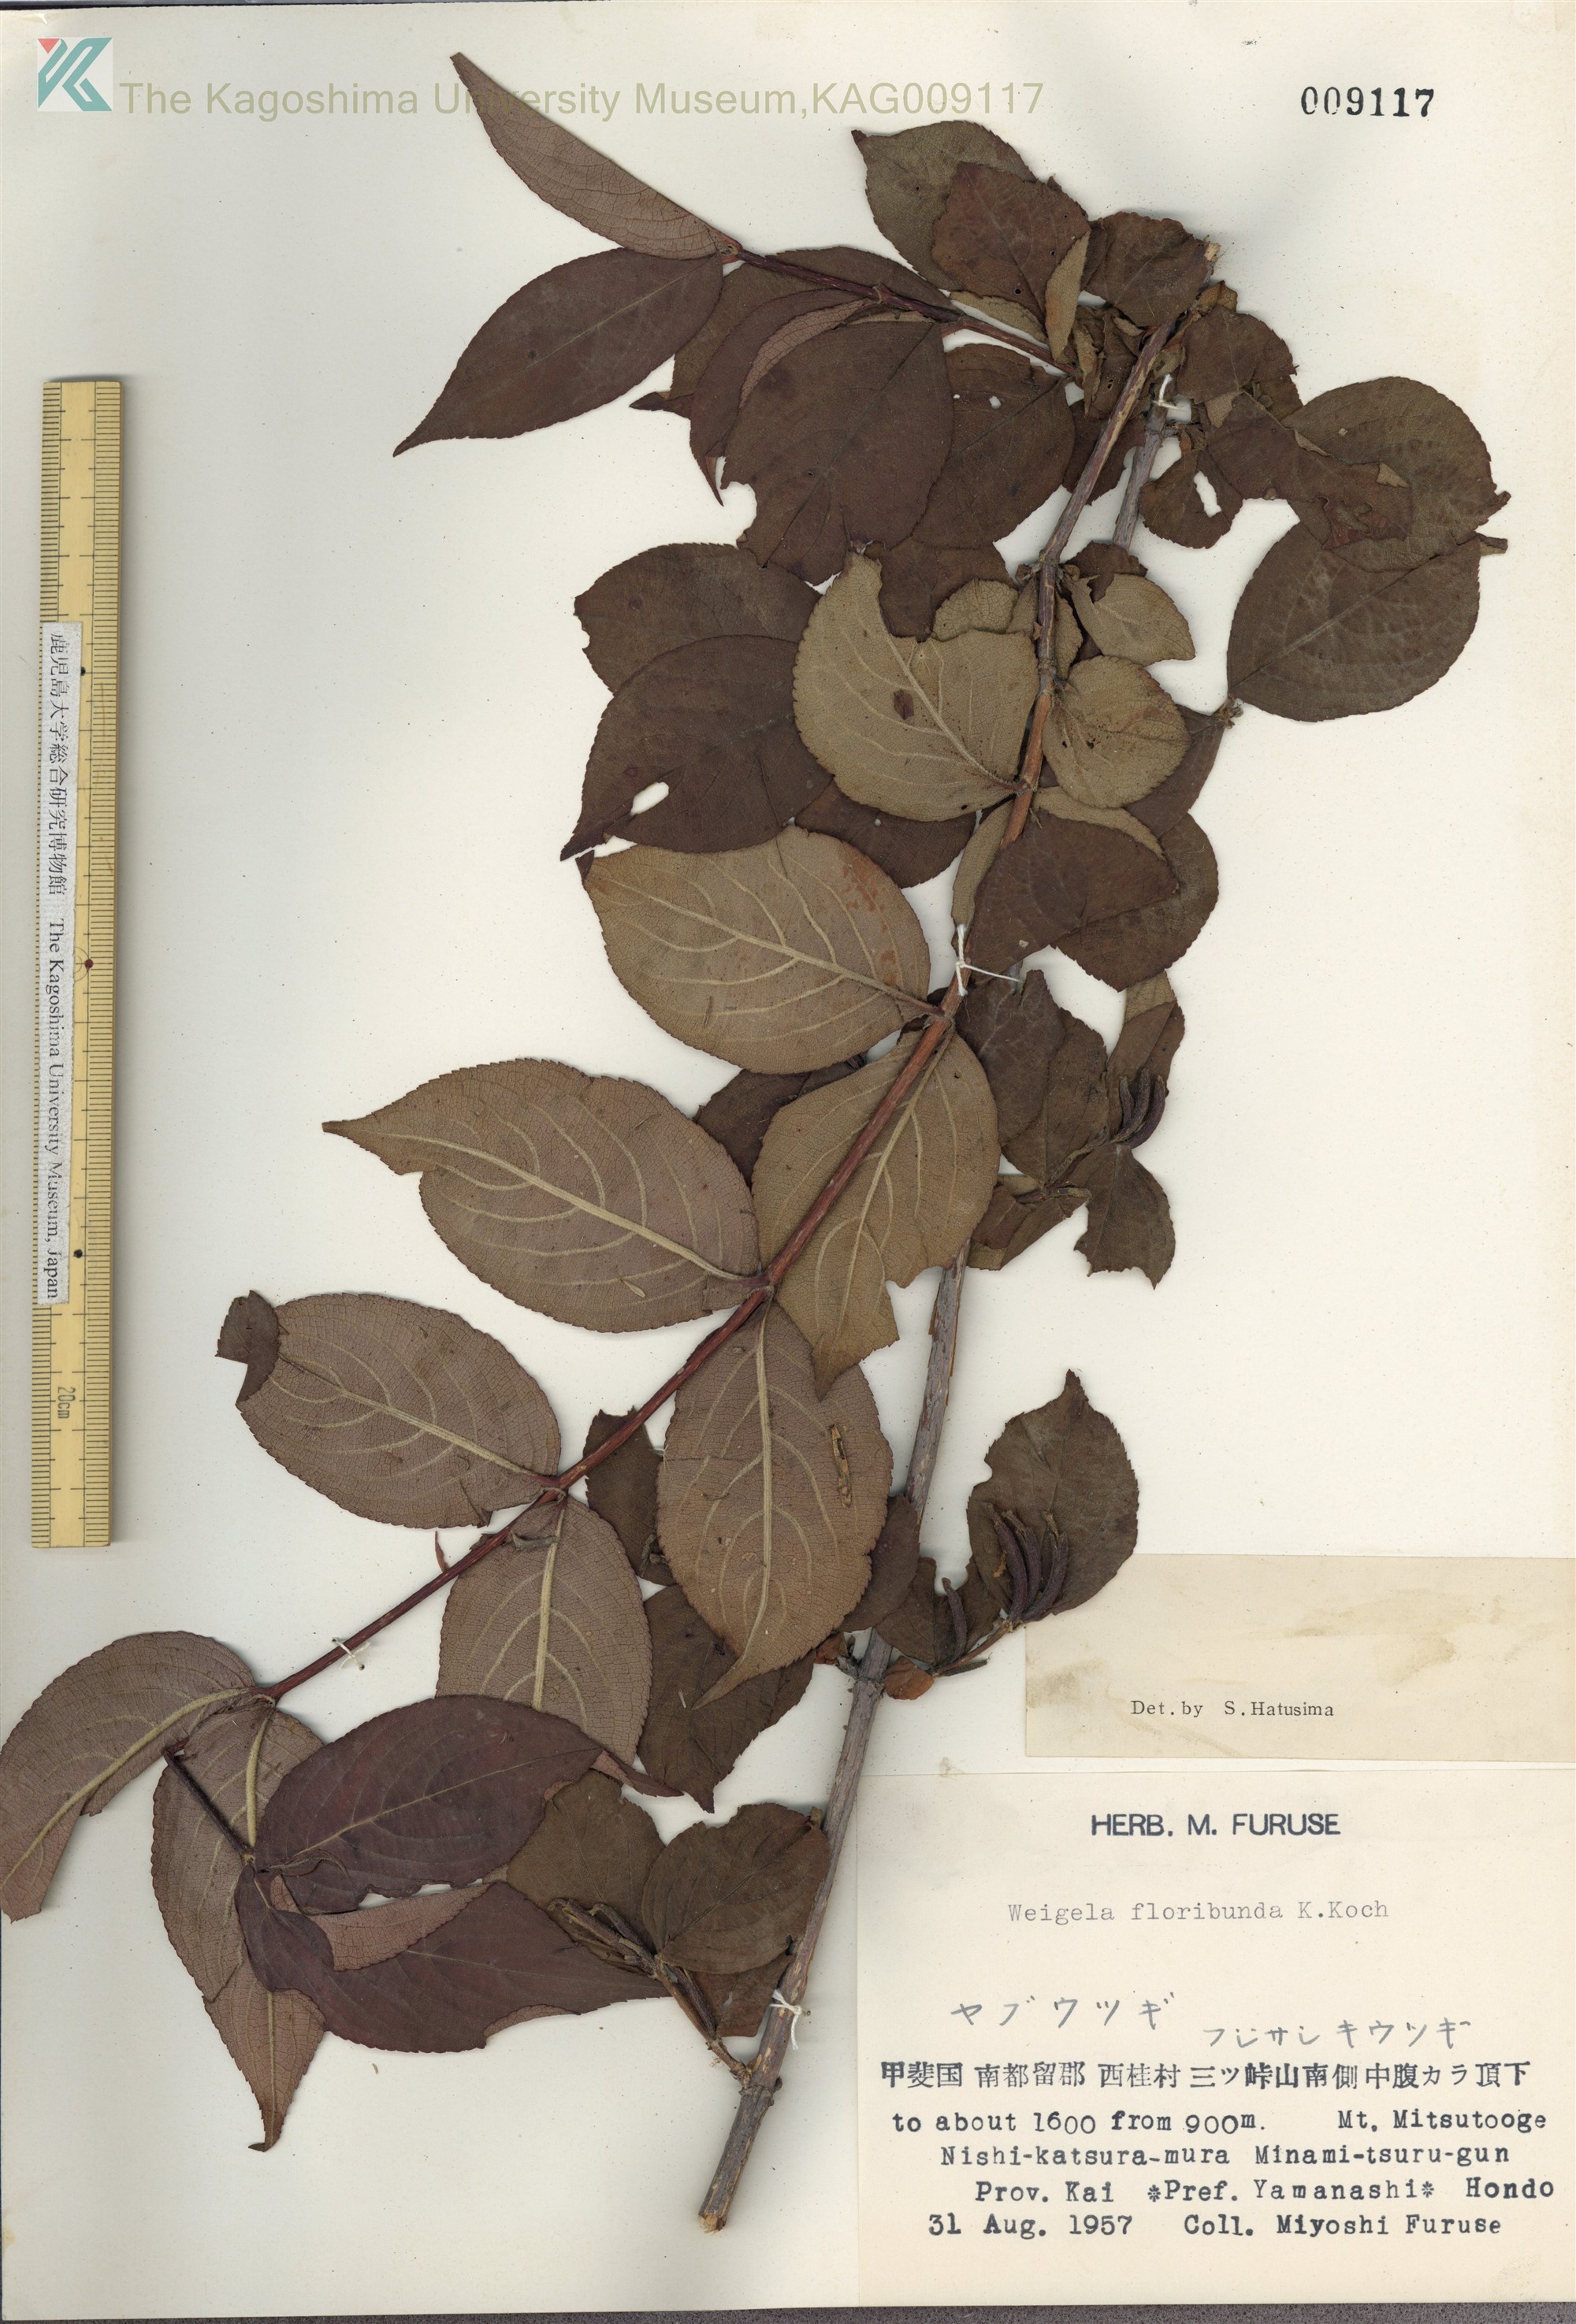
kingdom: Plantae
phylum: Tracheophyta
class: Magnoliopsida
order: Dipsacales
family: Caprifoliaceae
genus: Weigela
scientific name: Weigela decora
